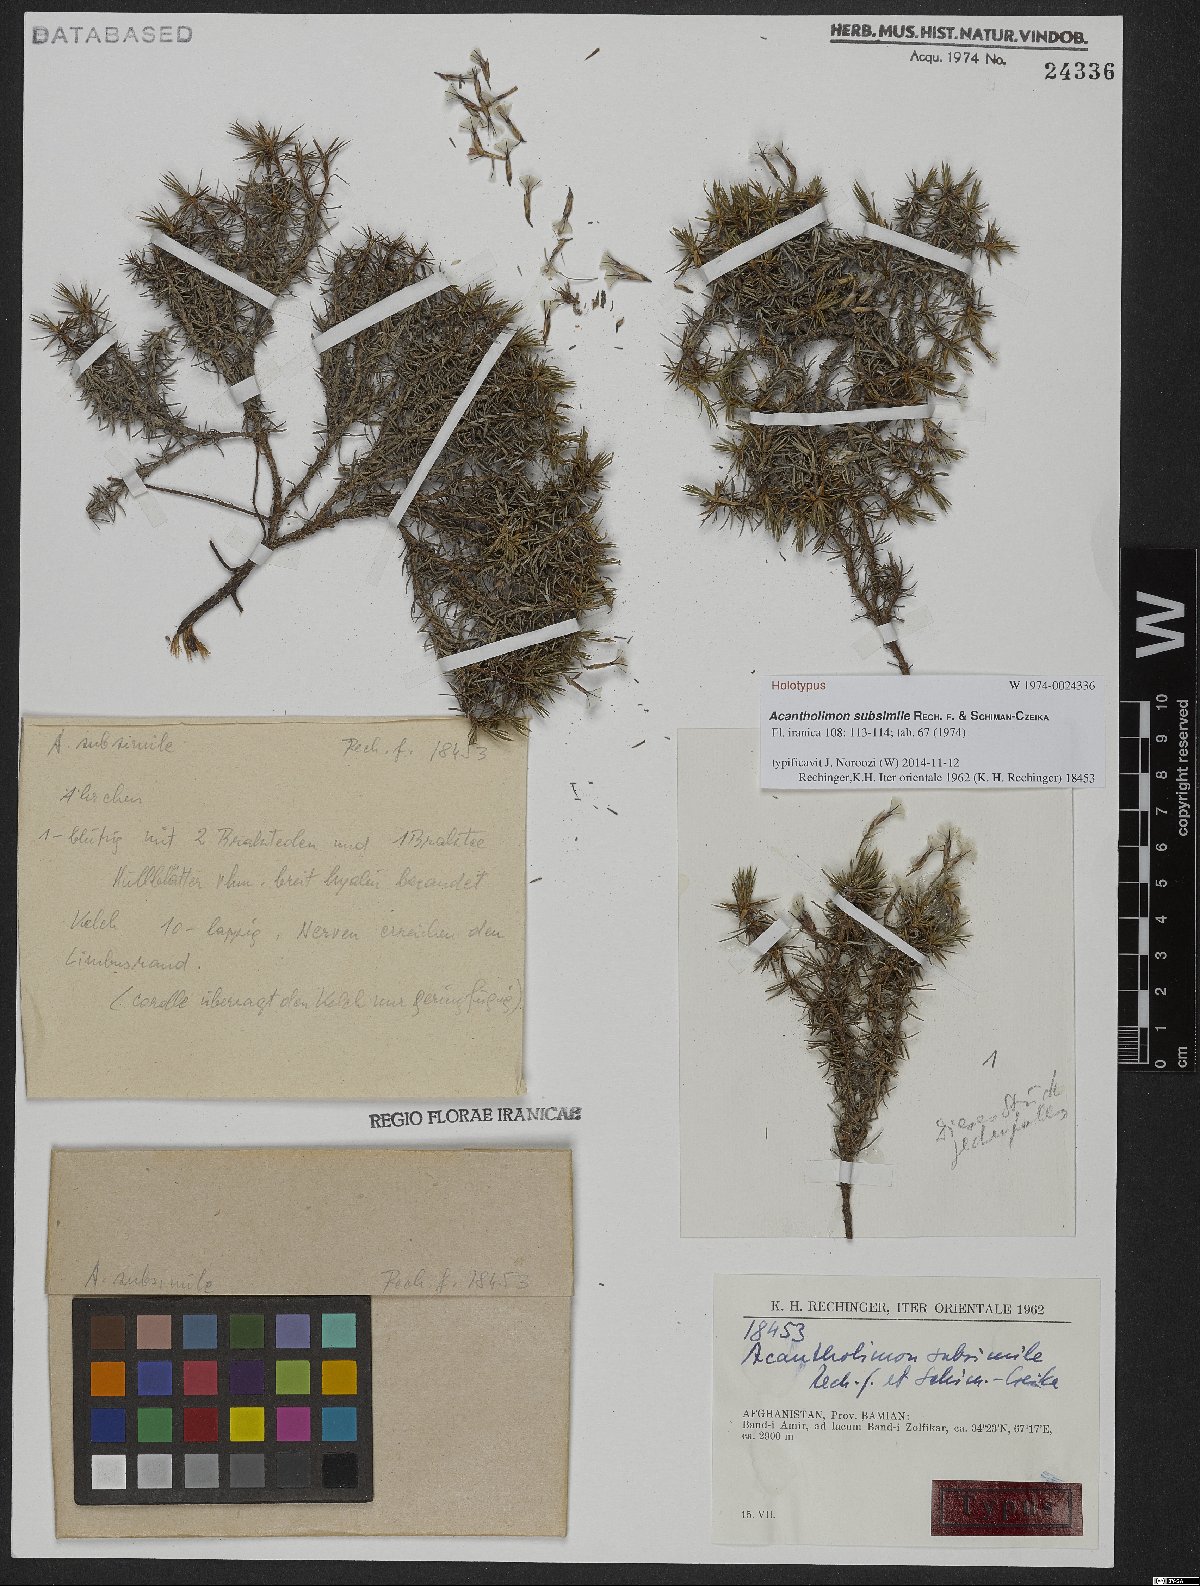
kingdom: Plantae
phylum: Tracheophyta
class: Magnoliopsida
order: Caryophyllales
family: Plumbaginaceae
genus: Acantholimon
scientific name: Acantholimon subsimile
